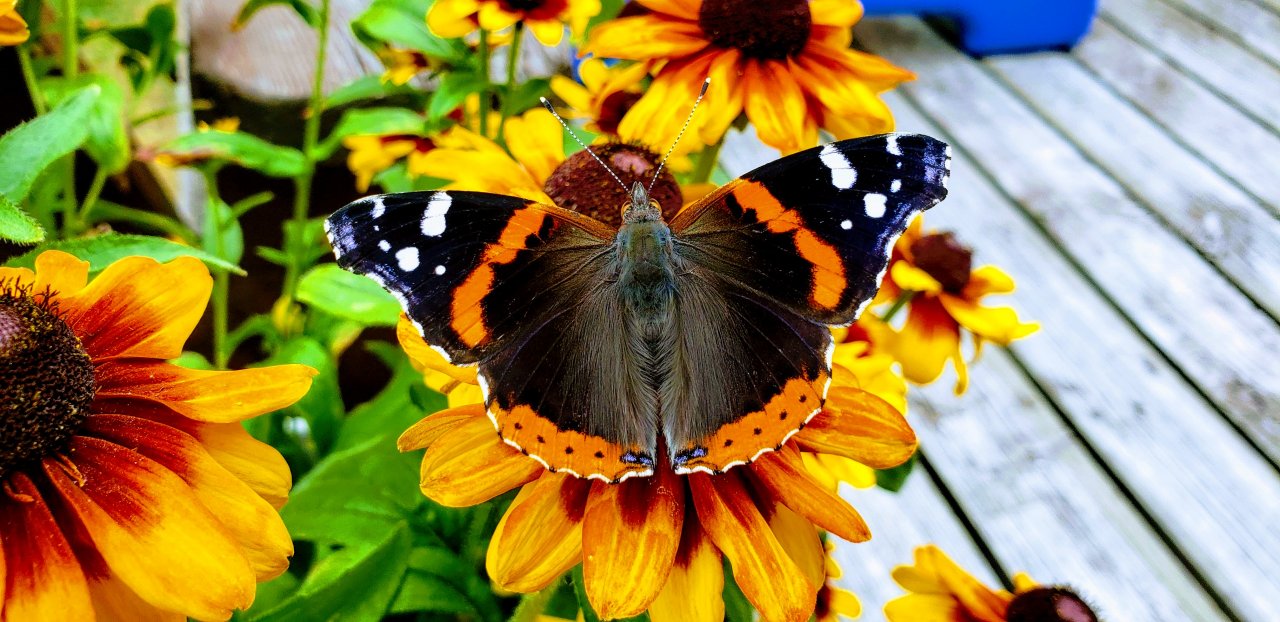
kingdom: Animalia
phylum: Arthropoda
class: Insecta
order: Lepidoptera
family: Nymphalidae
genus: Vanessa
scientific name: Vanessa atalanta
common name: Red Admiral
